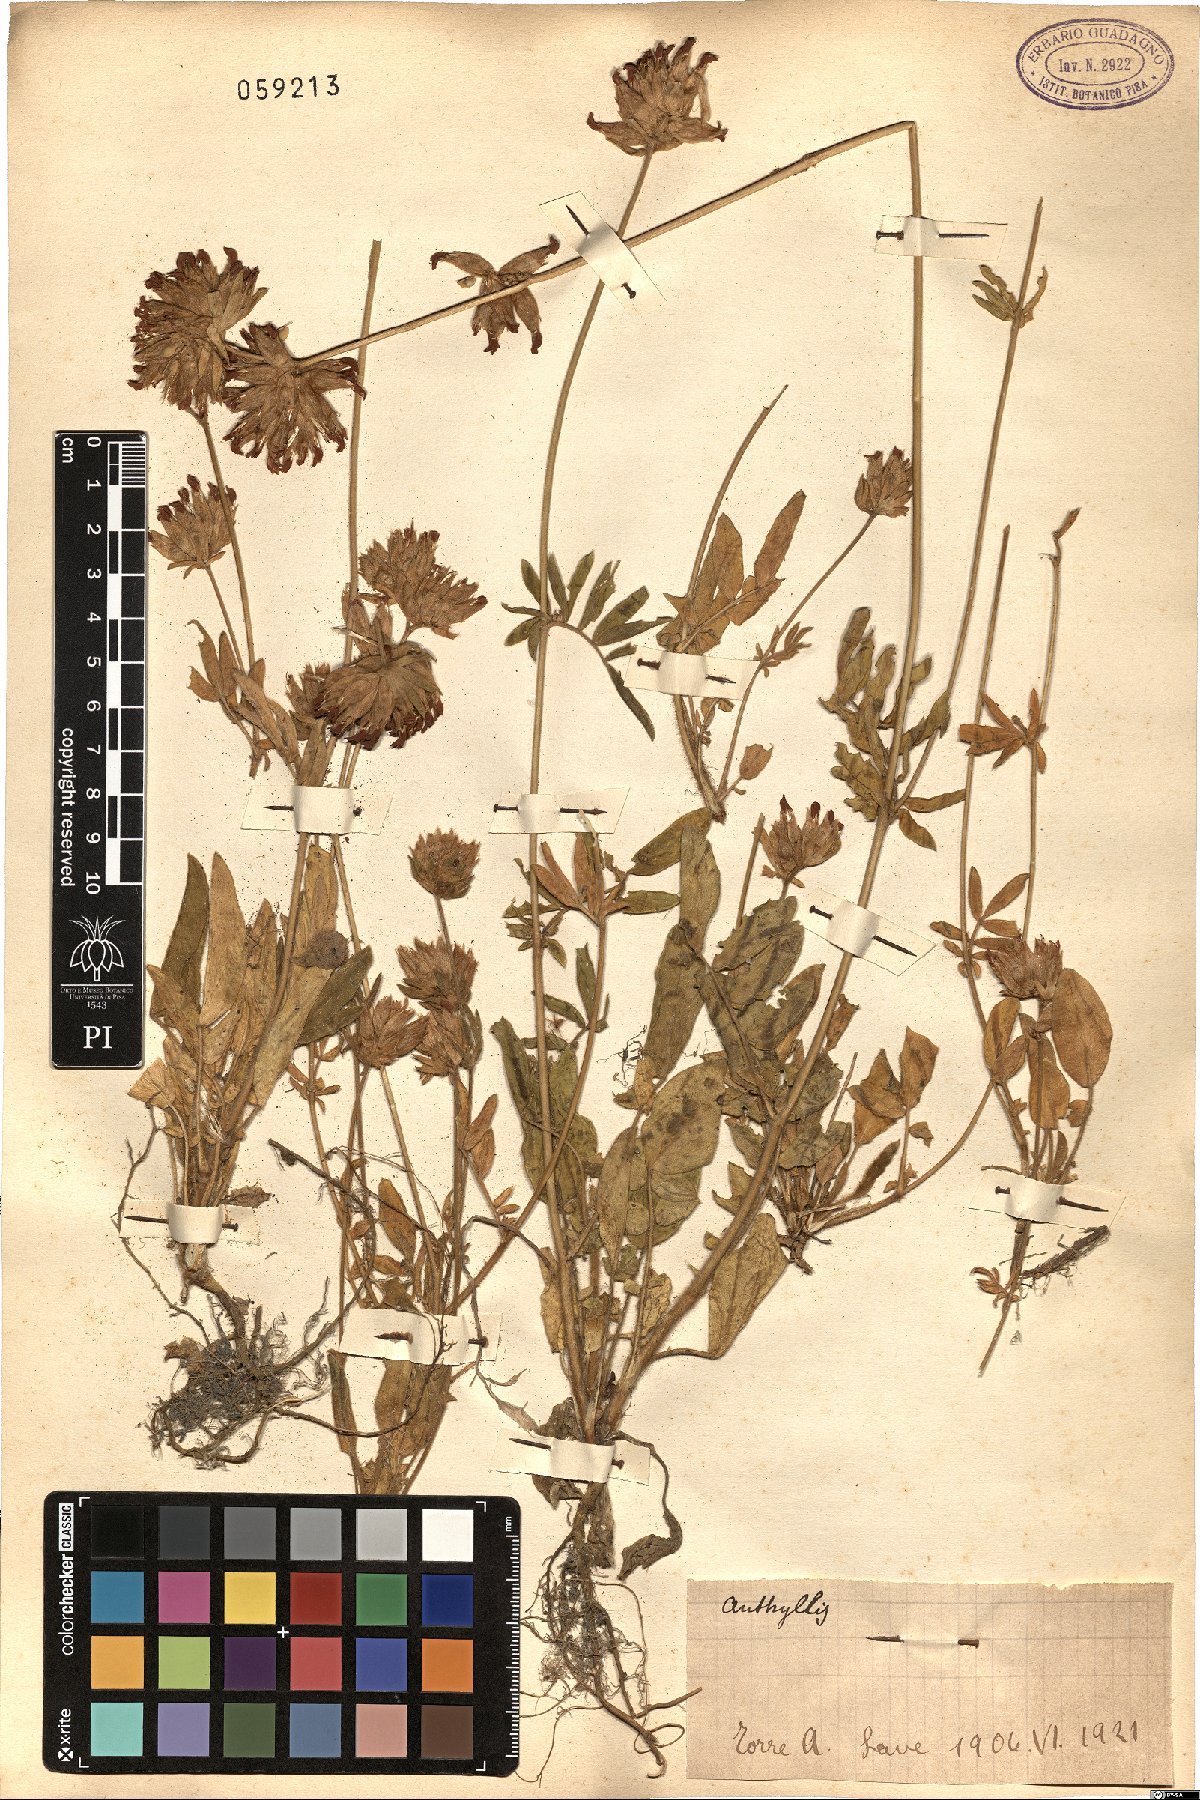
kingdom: Plantae
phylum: Tracheophyta
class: Magnoliopsida
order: Fabales
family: Fabaceae
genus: Anthyllis
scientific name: Anthyllis
